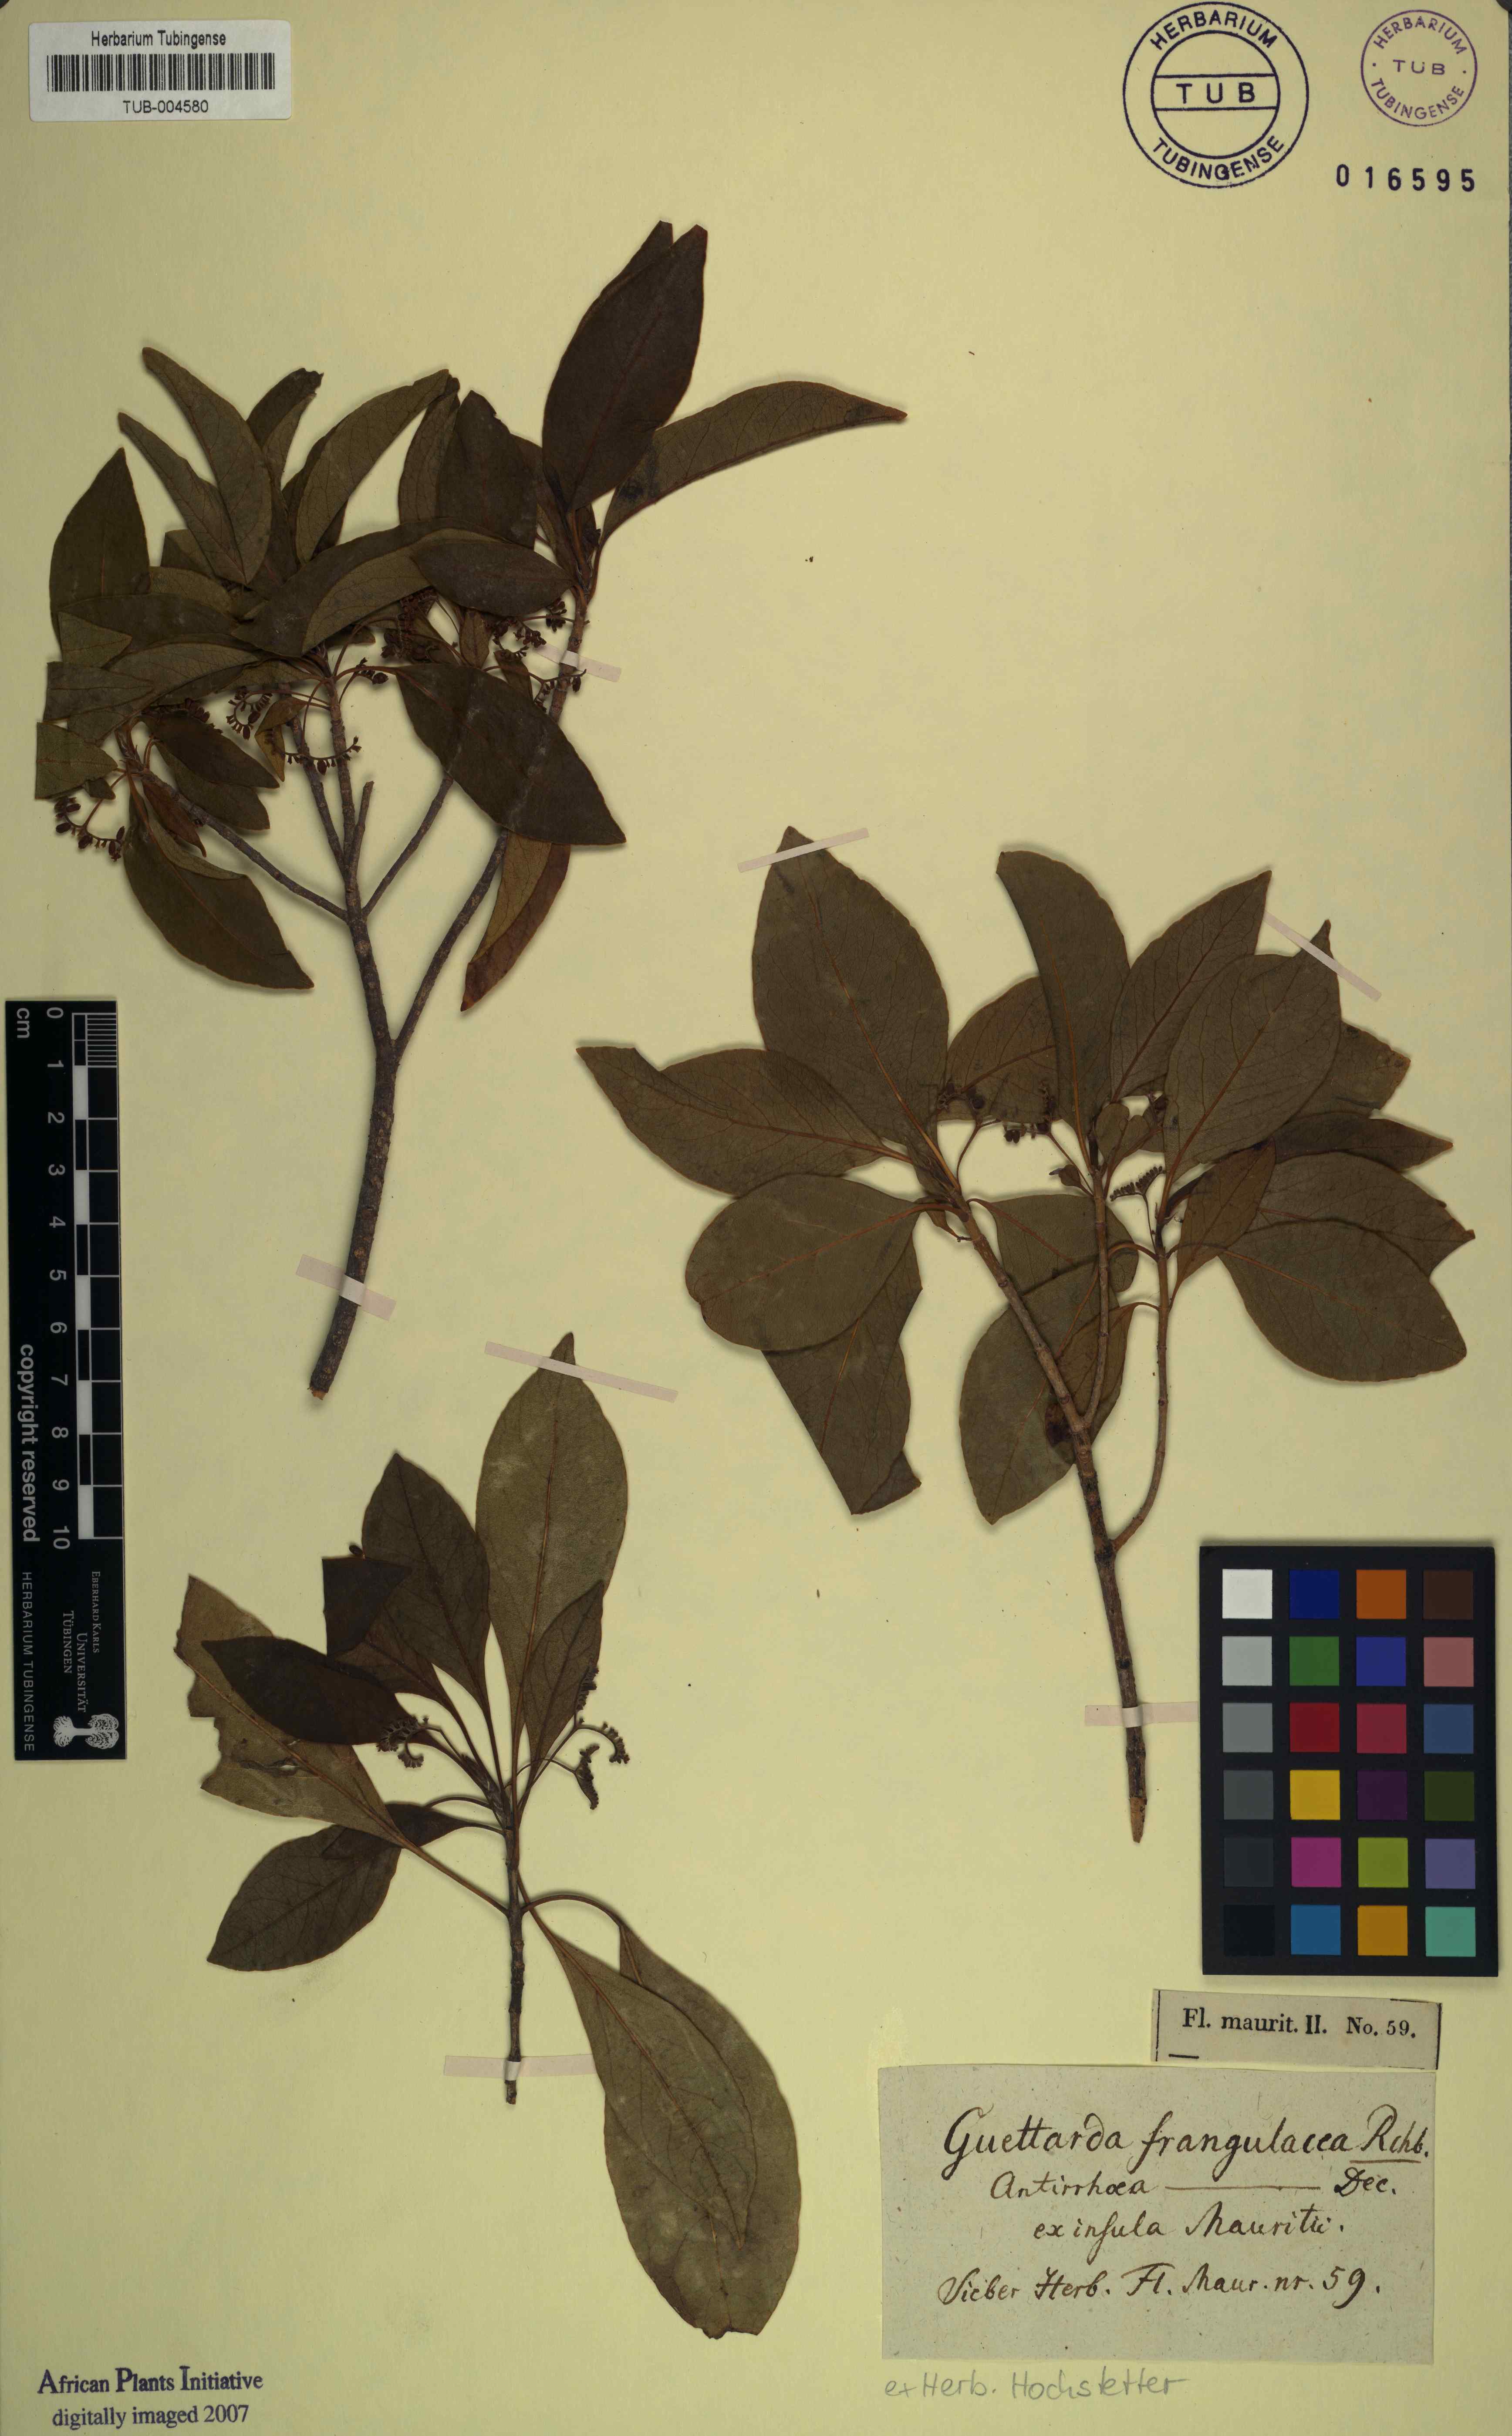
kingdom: Plantae
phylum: Tracheophyta
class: Magnoliopsida
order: Gentianales
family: Rubiaceae
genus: Antirhea
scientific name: Antirhea bifida
